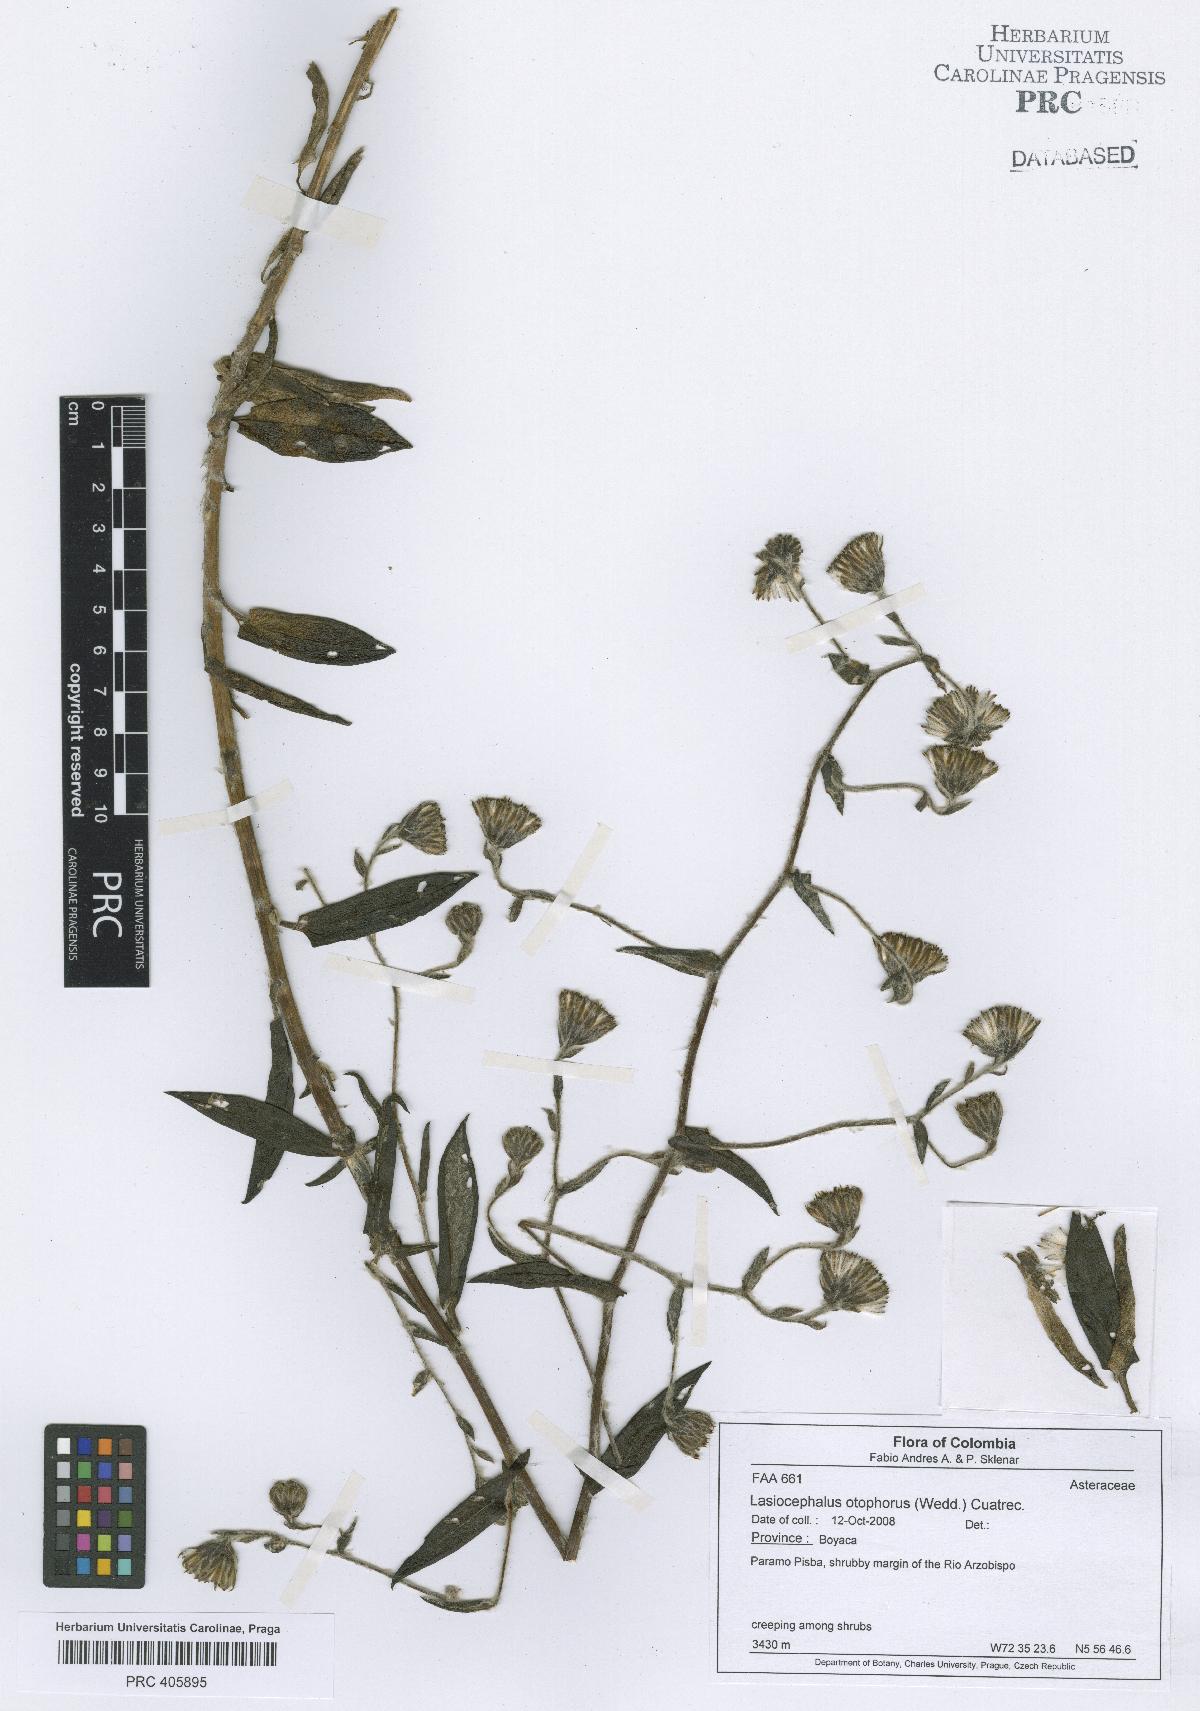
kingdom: Plantae
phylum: Tracheophyta
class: Magnoliopsida
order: Asterales
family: Asteraceae
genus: Aetheolaena
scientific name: Aetheolaena otophora
